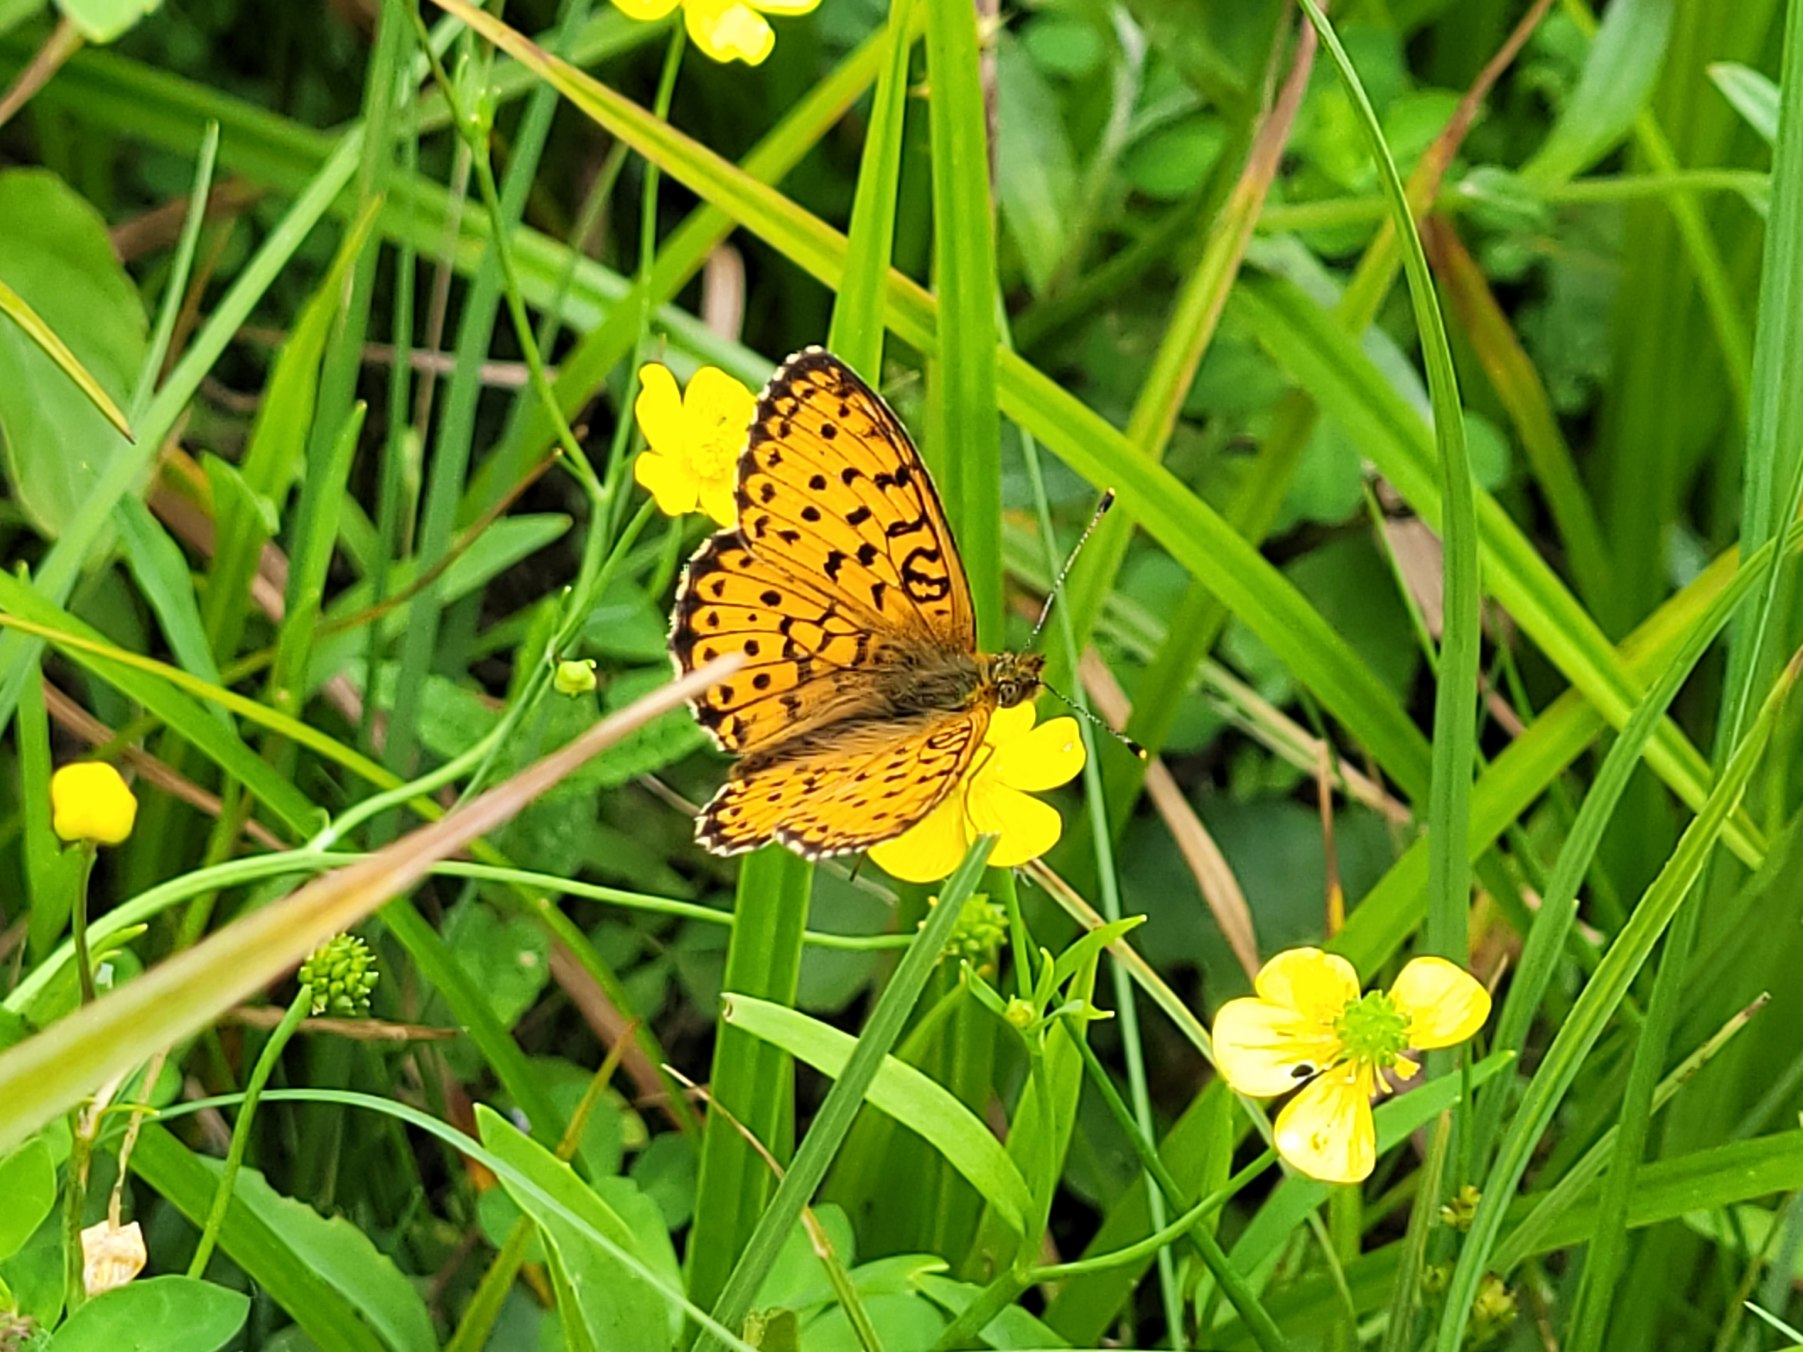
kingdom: Animalia
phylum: Arthropoda
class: Insecta
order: Lepidoptera
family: Nymphalidae
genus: Brenthis
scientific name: Brenthis ino
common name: Engperlemorsommerfugl
